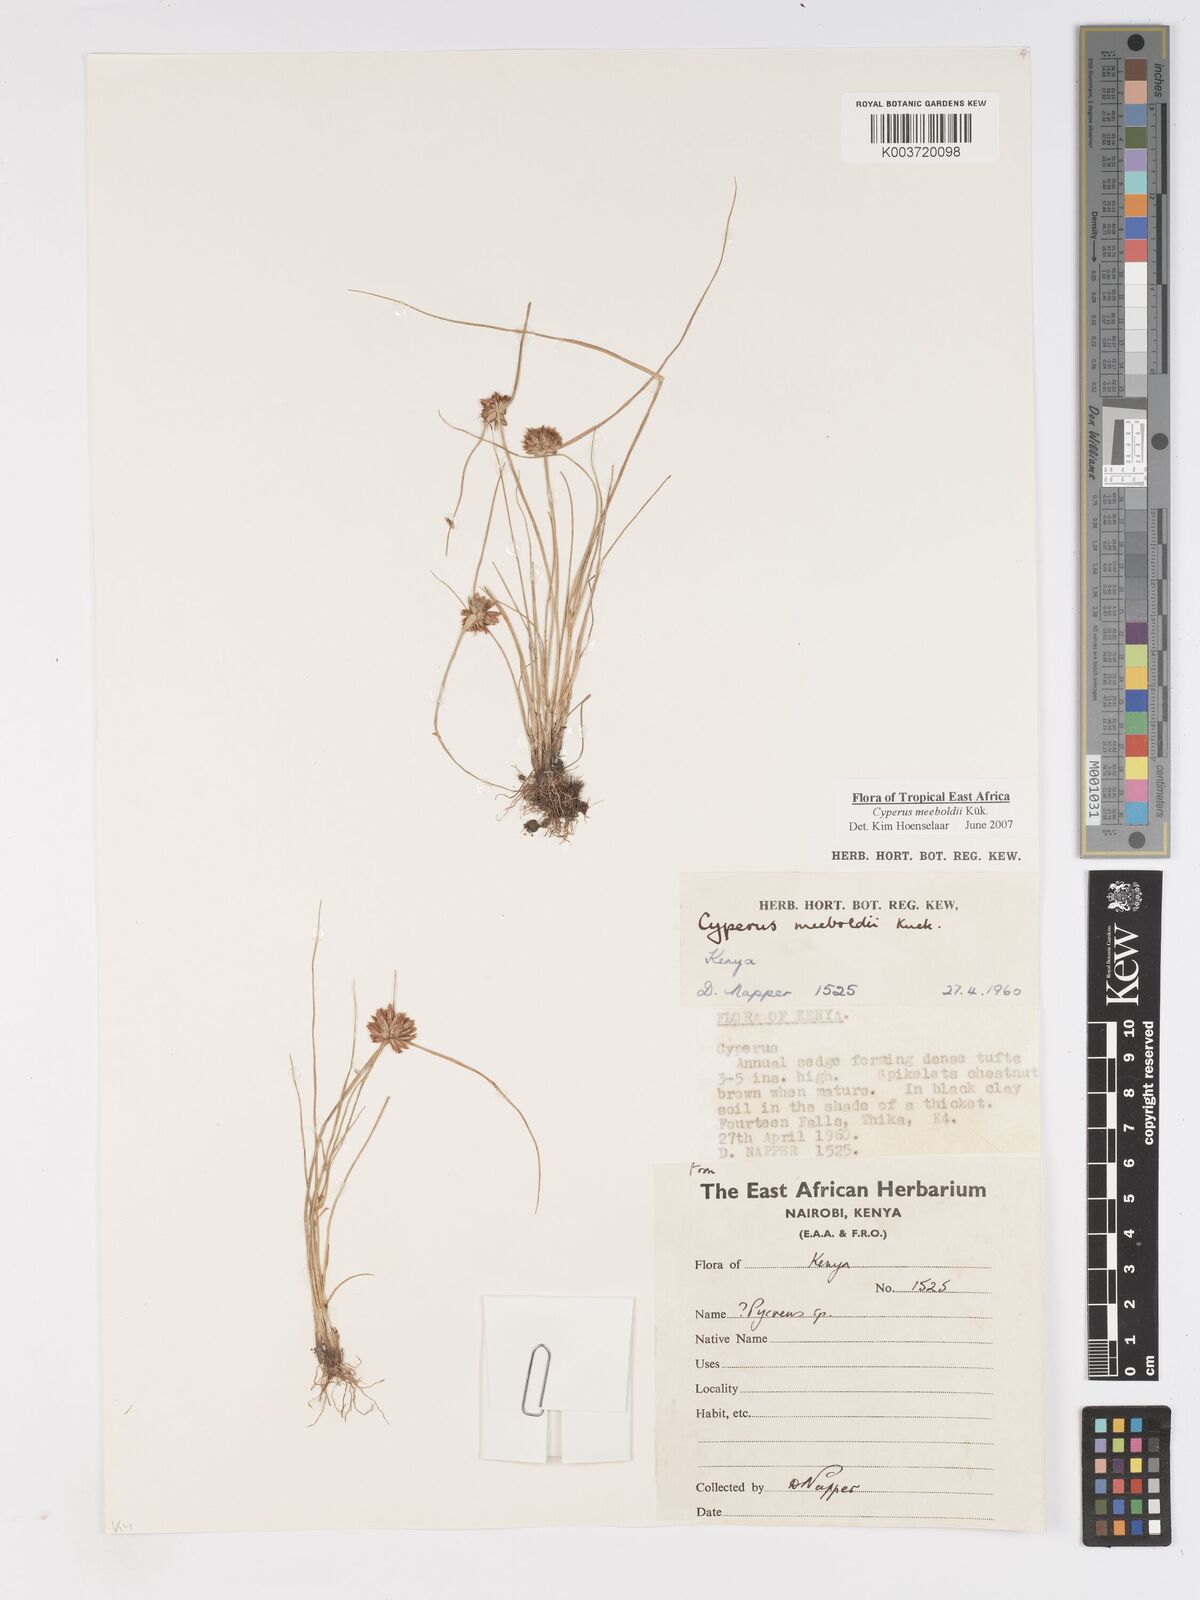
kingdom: Plantae
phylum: Tracheophyta
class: Liliopsida
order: Poales
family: Cyperaceae
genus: Cyperus
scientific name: Cyperus meeboldii
